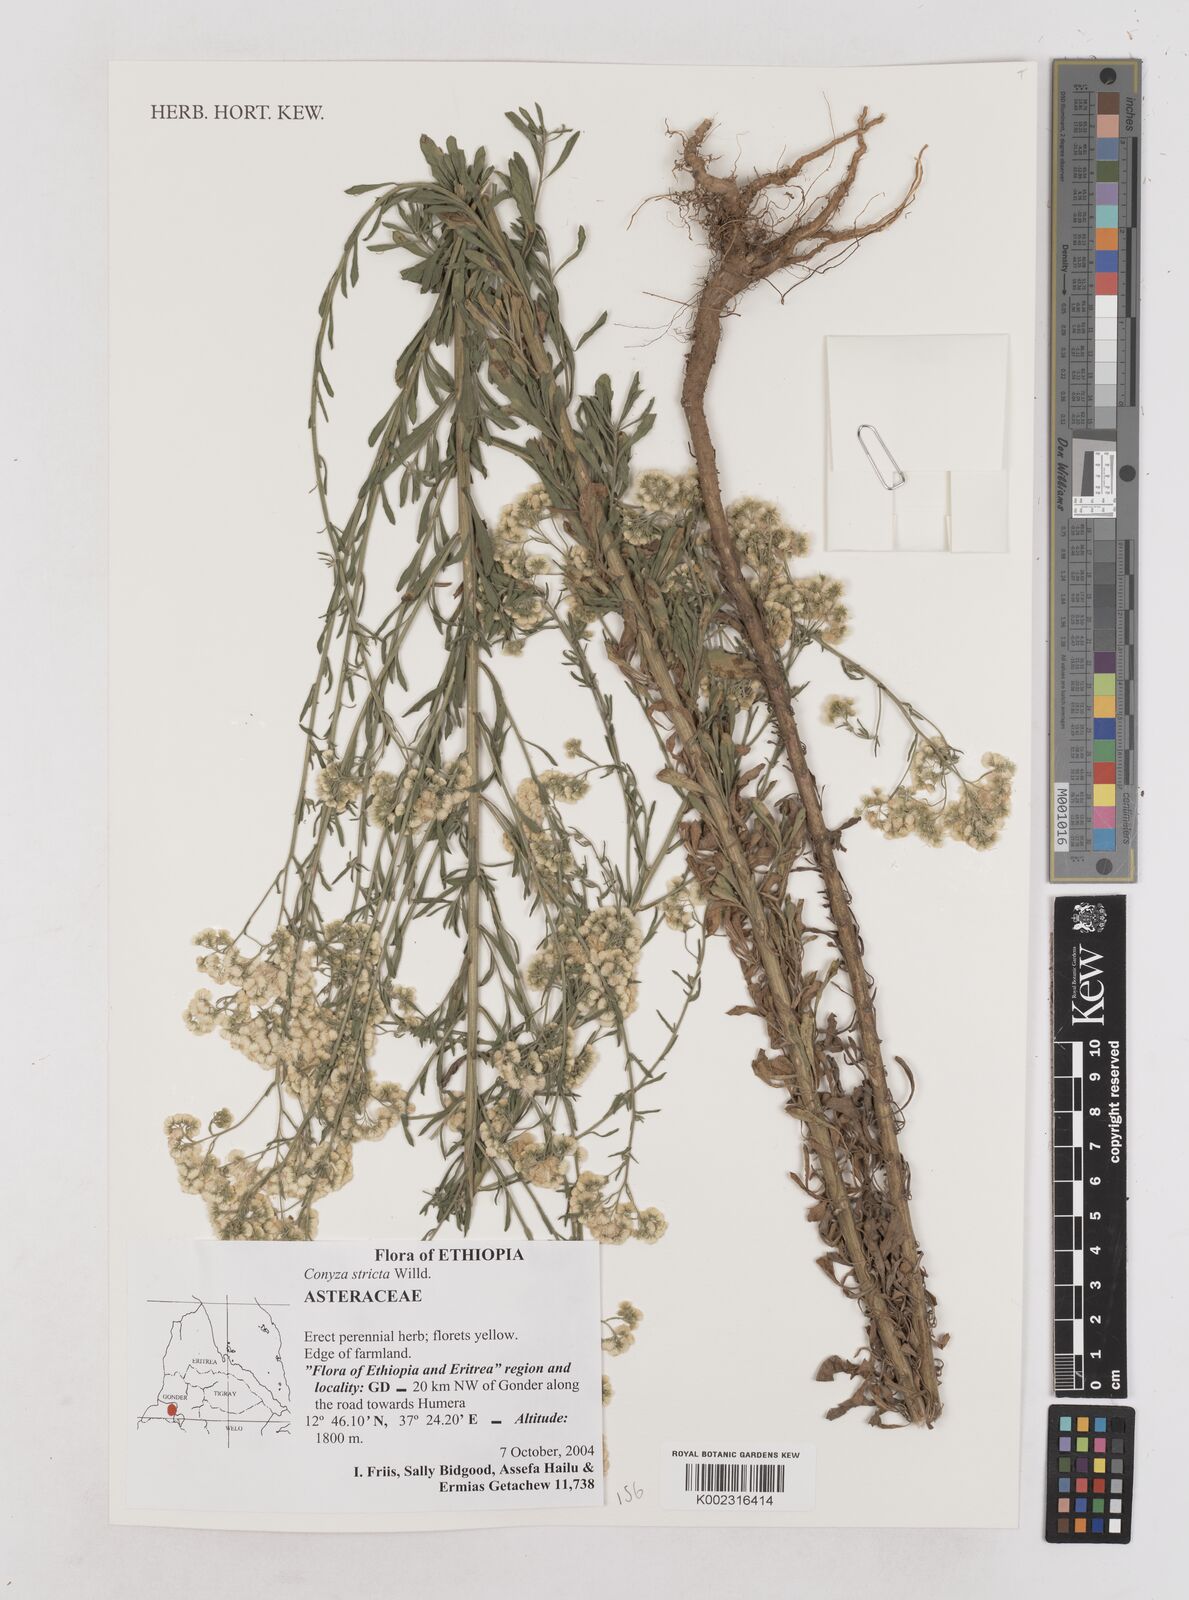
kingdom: Plantae
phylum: Tracheophyta
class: Magnoliopsida
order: Asterales
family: Asteraceae
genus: Nidorella
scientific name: Nidorella triloba
